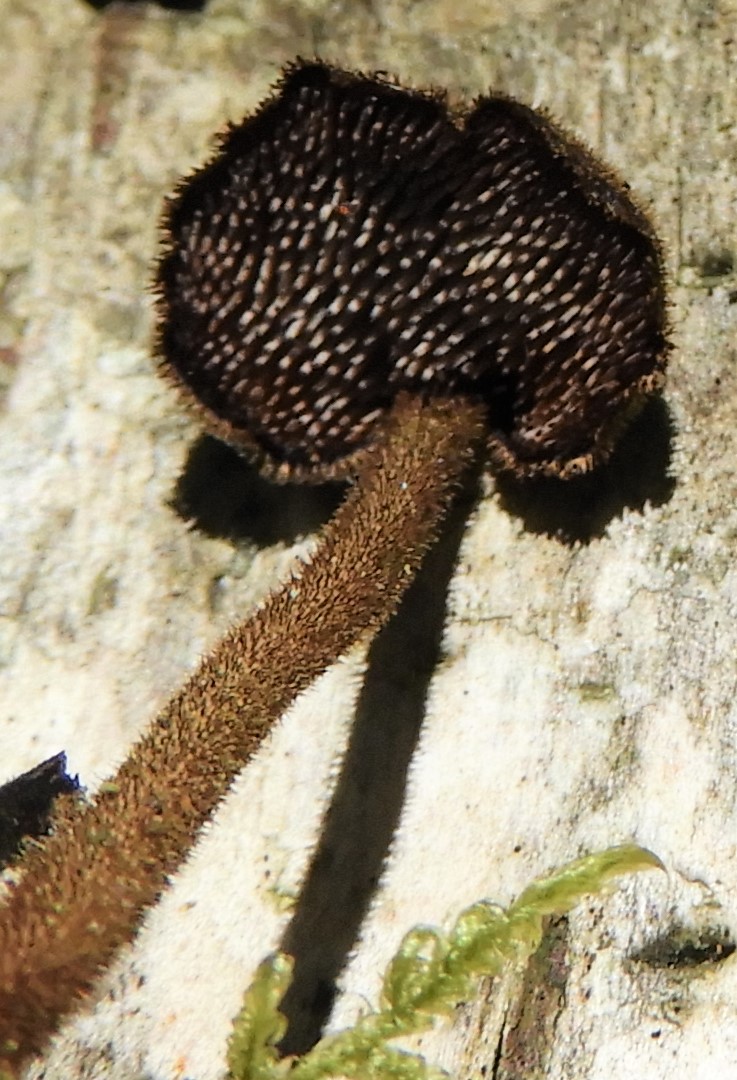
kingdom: Fungi
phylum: Basidiomycota
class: Agaricomycetes
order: Russulales
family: Auriscalpiaceae
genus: Auriscalpium
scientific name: Auriscalpium vulgare
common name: koglepigsvamp
